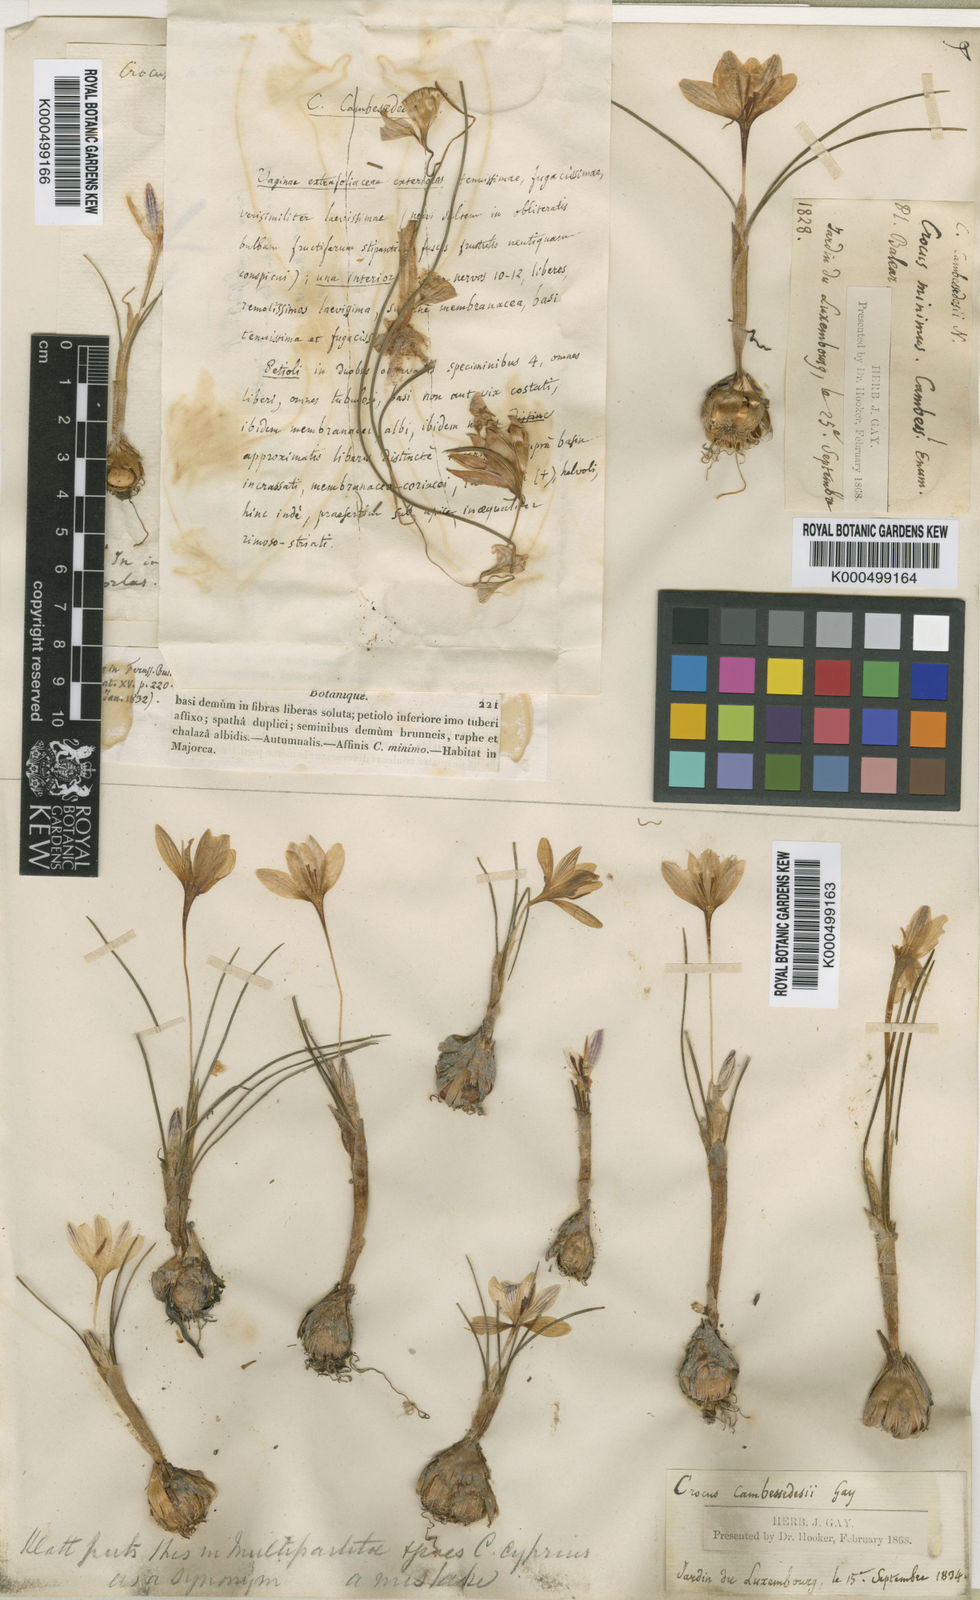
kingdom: Plantae
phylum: Tracheophyta
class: Liliopsida
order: Asparagales
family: Iridaceae
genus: Crocus
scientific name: Crocus cambessedesii
